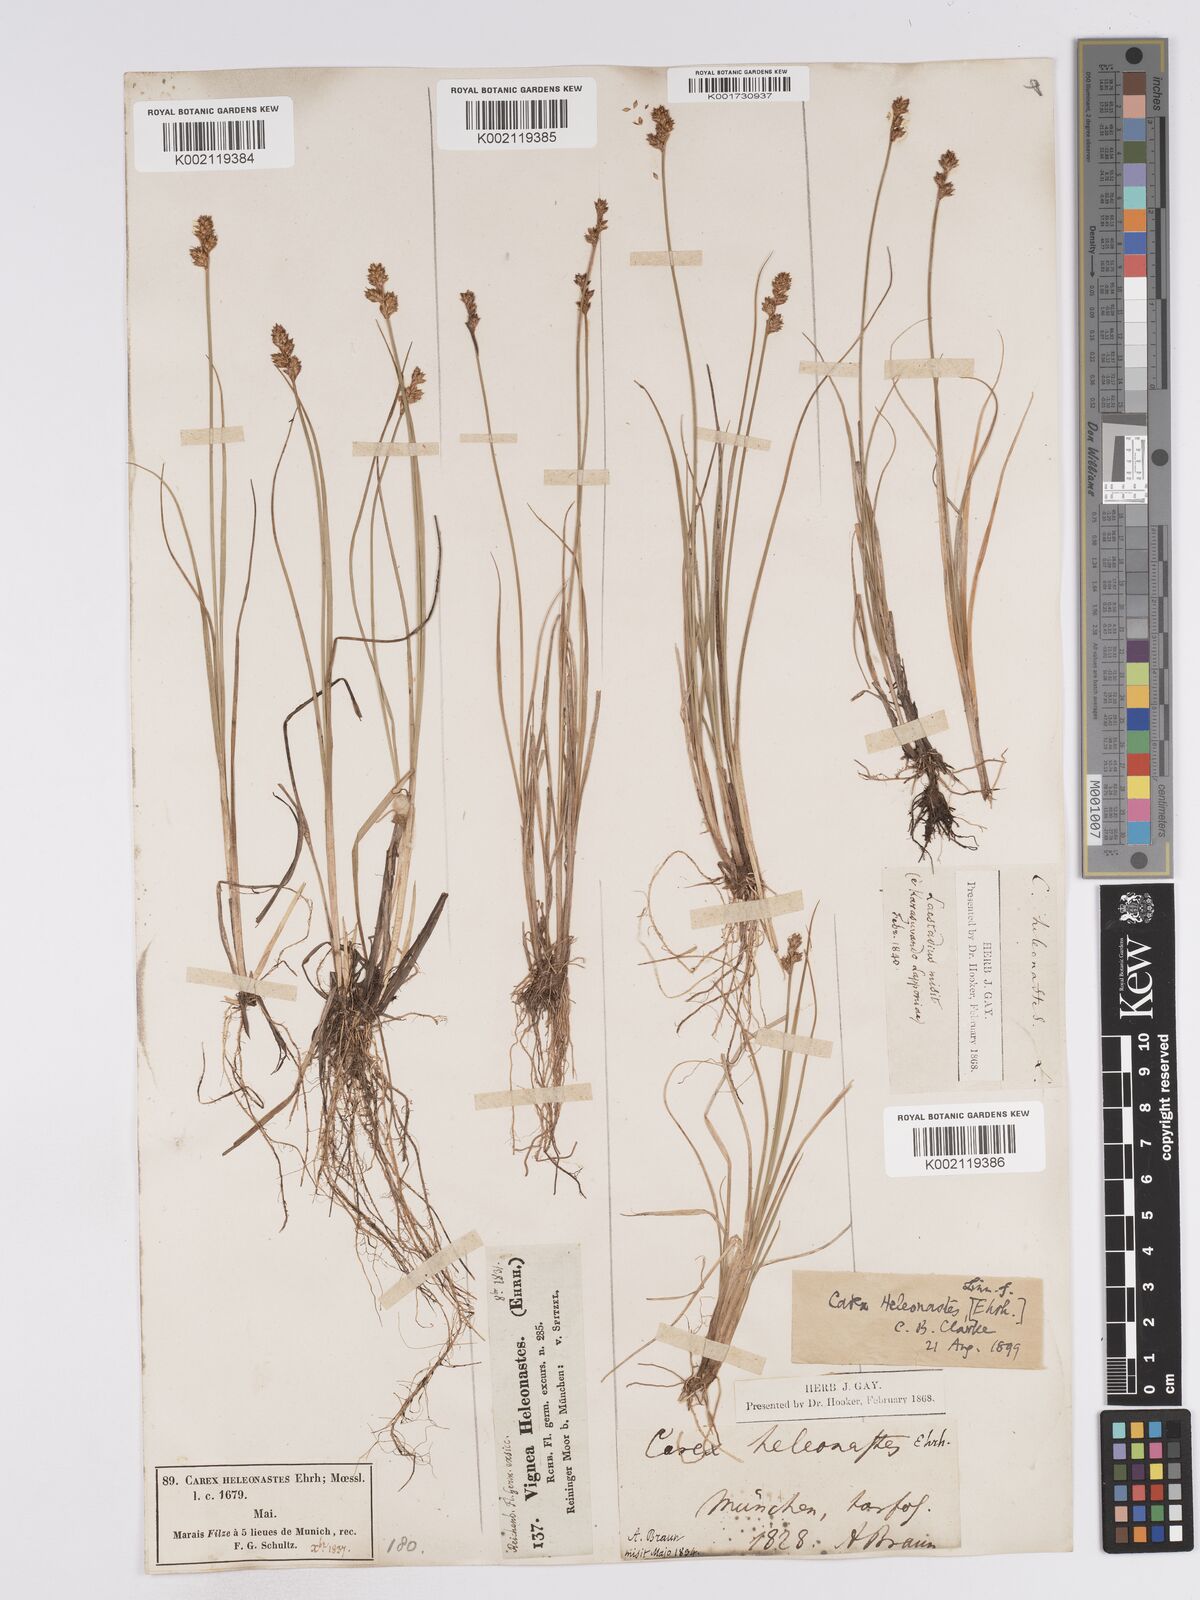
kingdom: Plantae
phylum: Tracheophyta
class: Liliopsida
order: Poales
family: Cyperaceae
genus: Carex
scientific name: Carex heleonastes
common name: Hudson bay sedge
